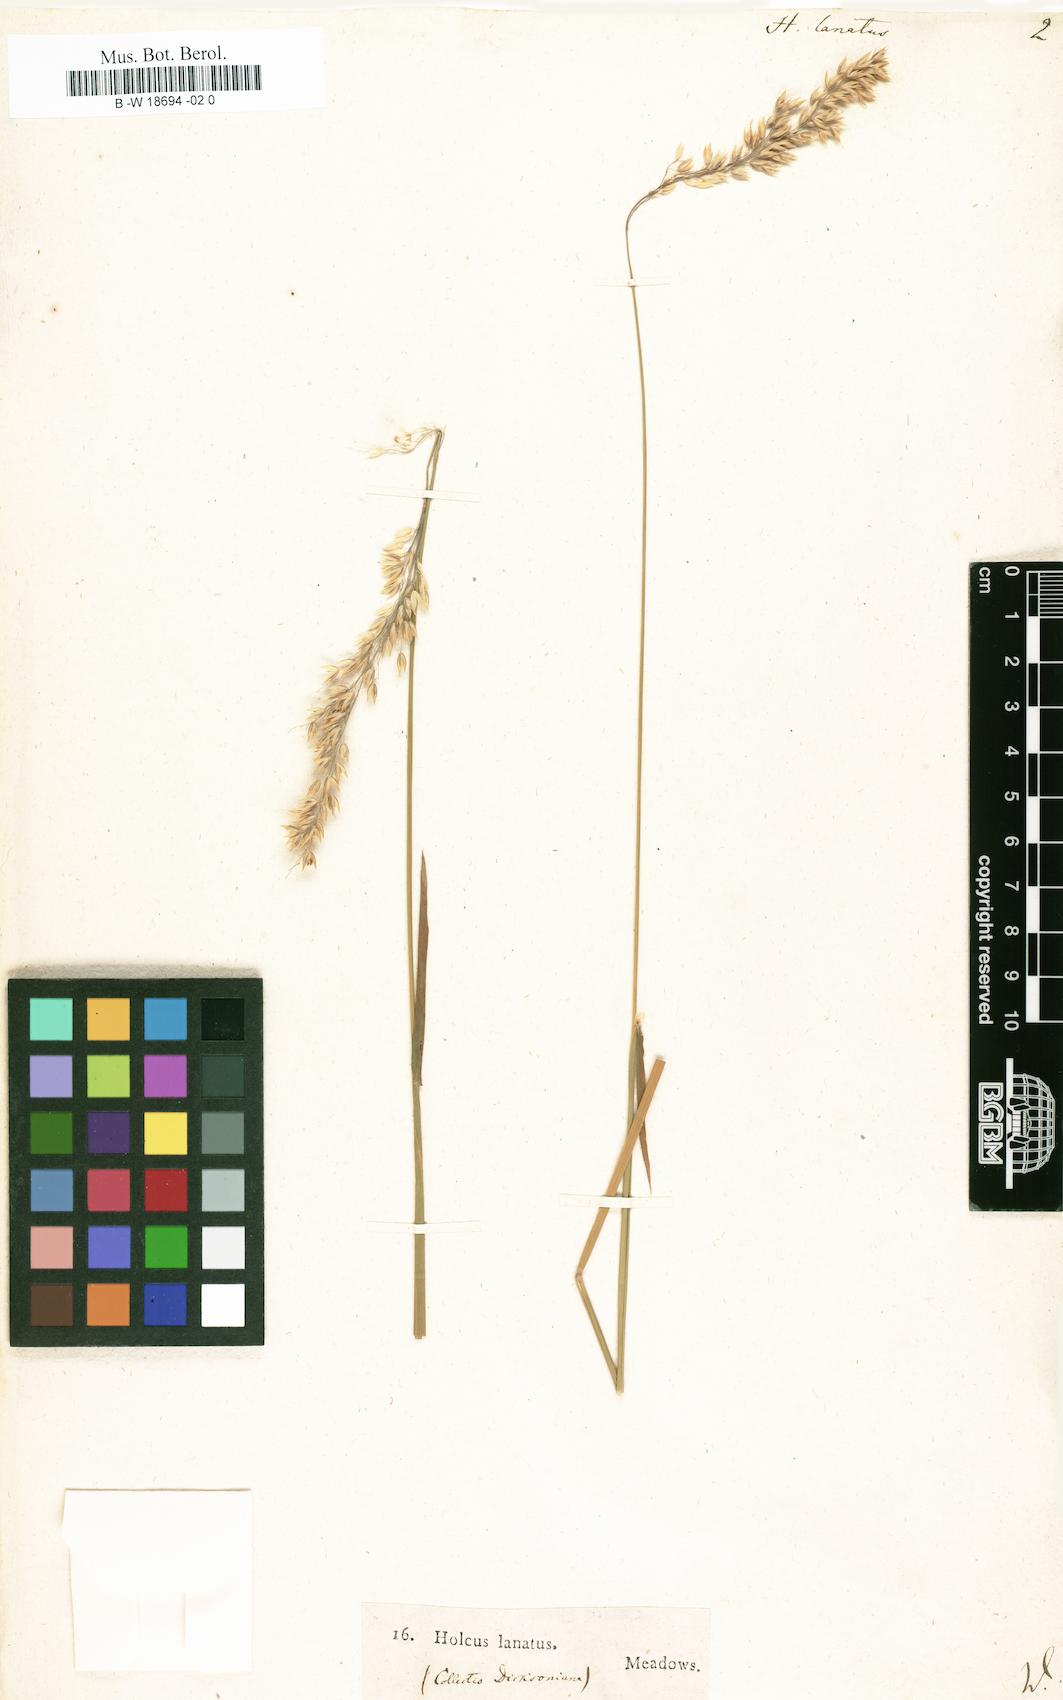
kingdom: Plantae
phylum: Tracheophyta
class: Liliopsida
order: Poales
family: Poaceae
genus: Holcus
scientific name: Holcus lanatus
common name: Yorkshire-fog
